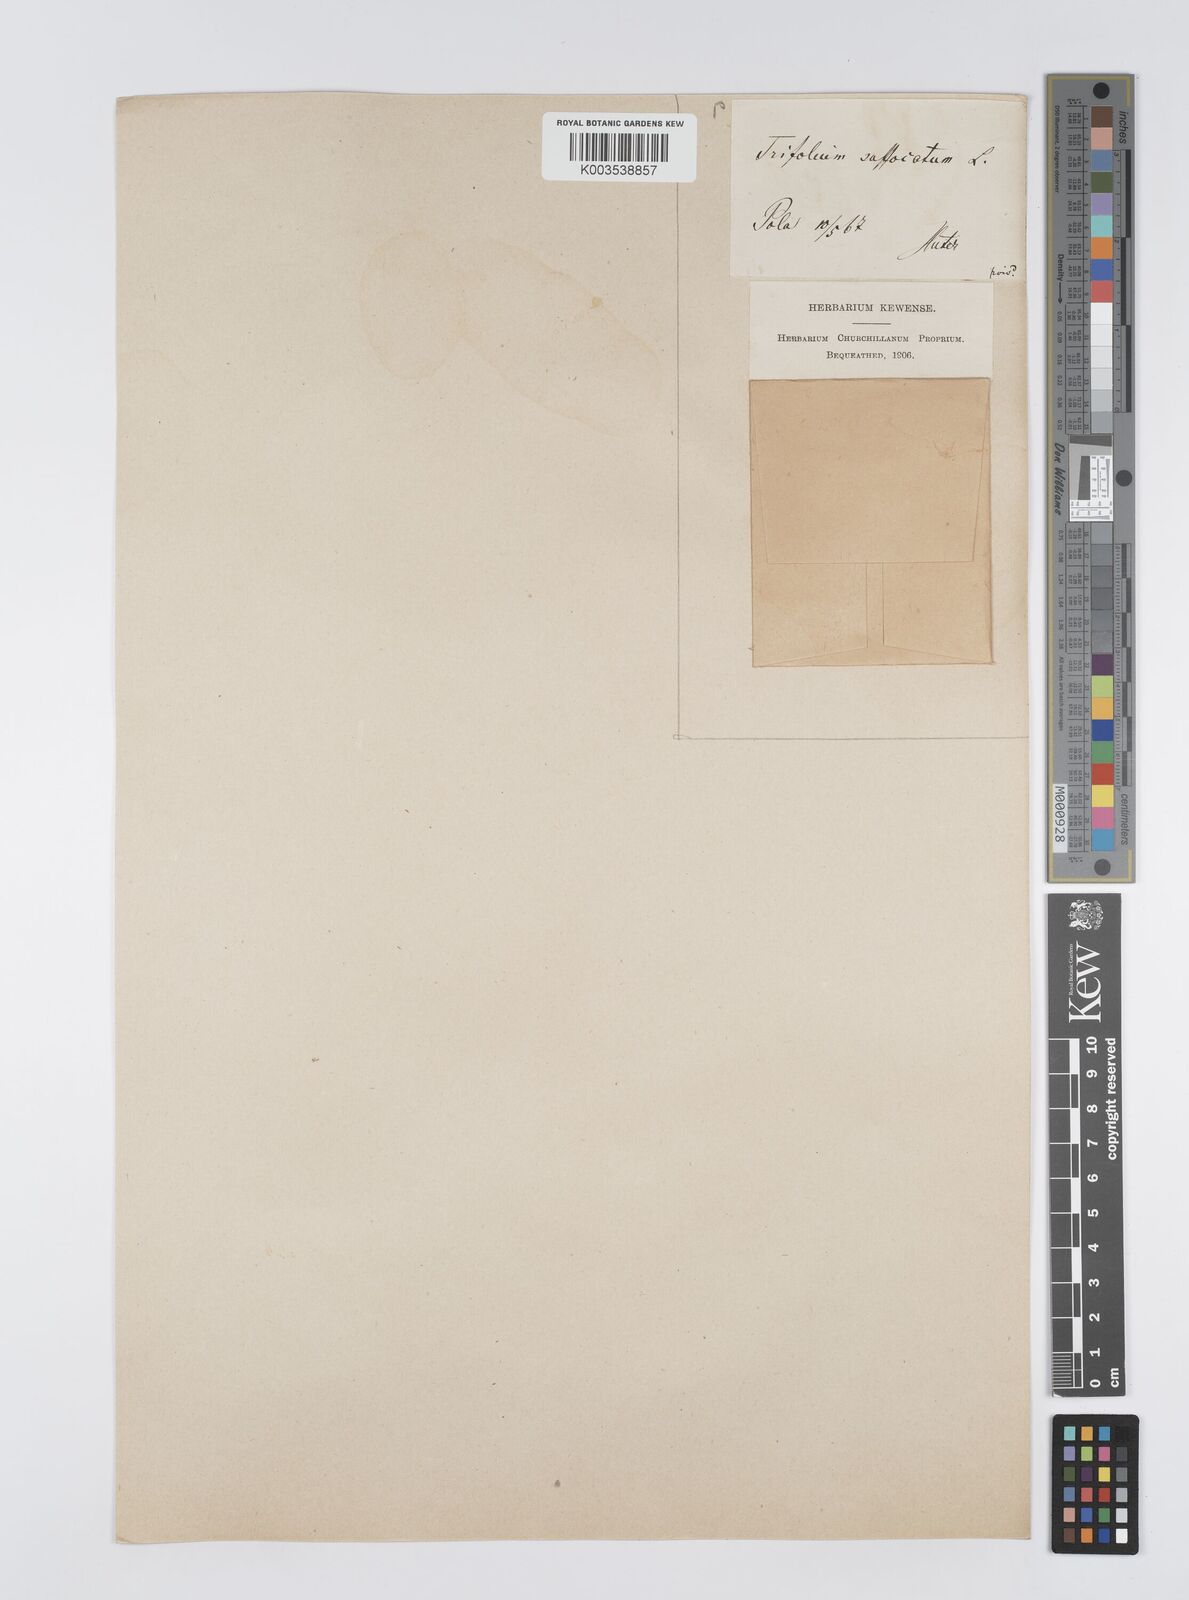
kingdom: Plantae
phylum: Tracheophyta
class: Magnoliopsida
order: Fabales
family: Fabaceae
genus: Trifolium
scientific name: Trifolium suffocatum
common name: Suffocated clover
